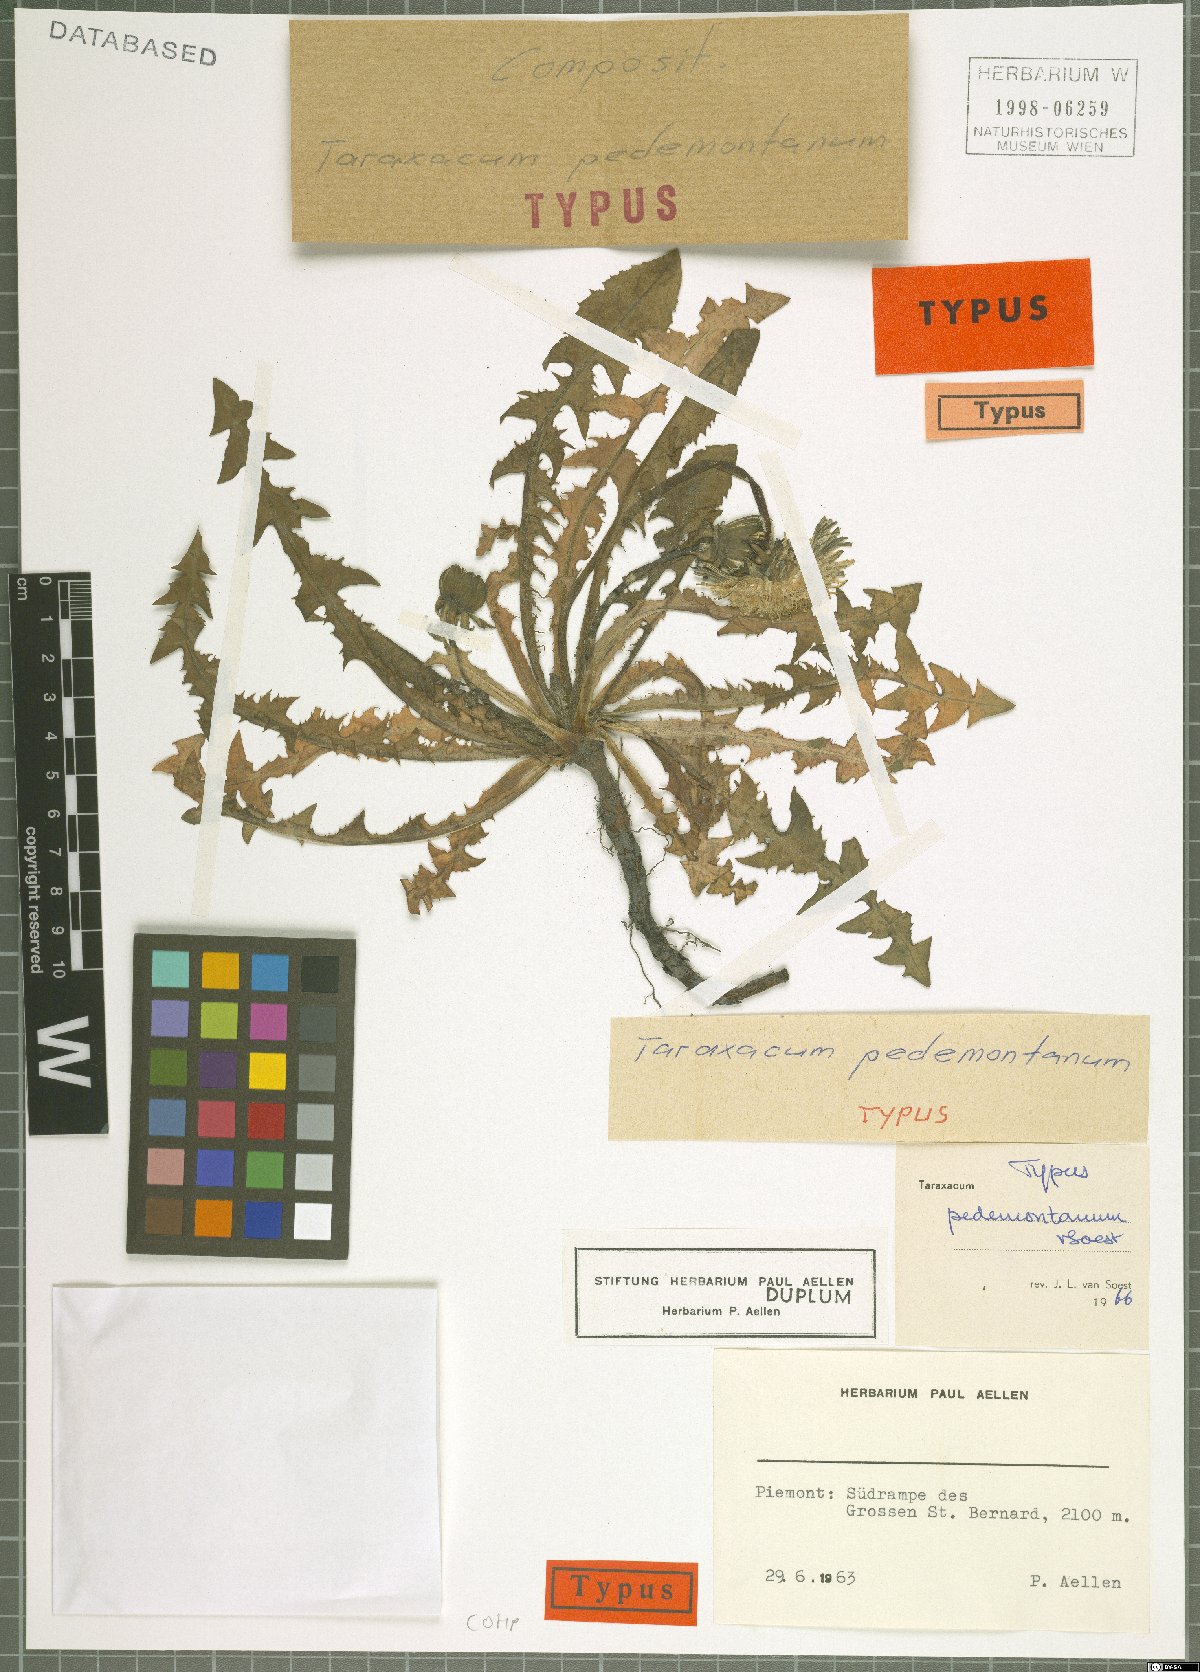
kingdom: Plantae
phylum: Tracheophyta
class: Magnoliopsida
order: Asterales
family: Asteraceae
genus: Taraxacum
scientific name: Taraxacum pedemontanum
